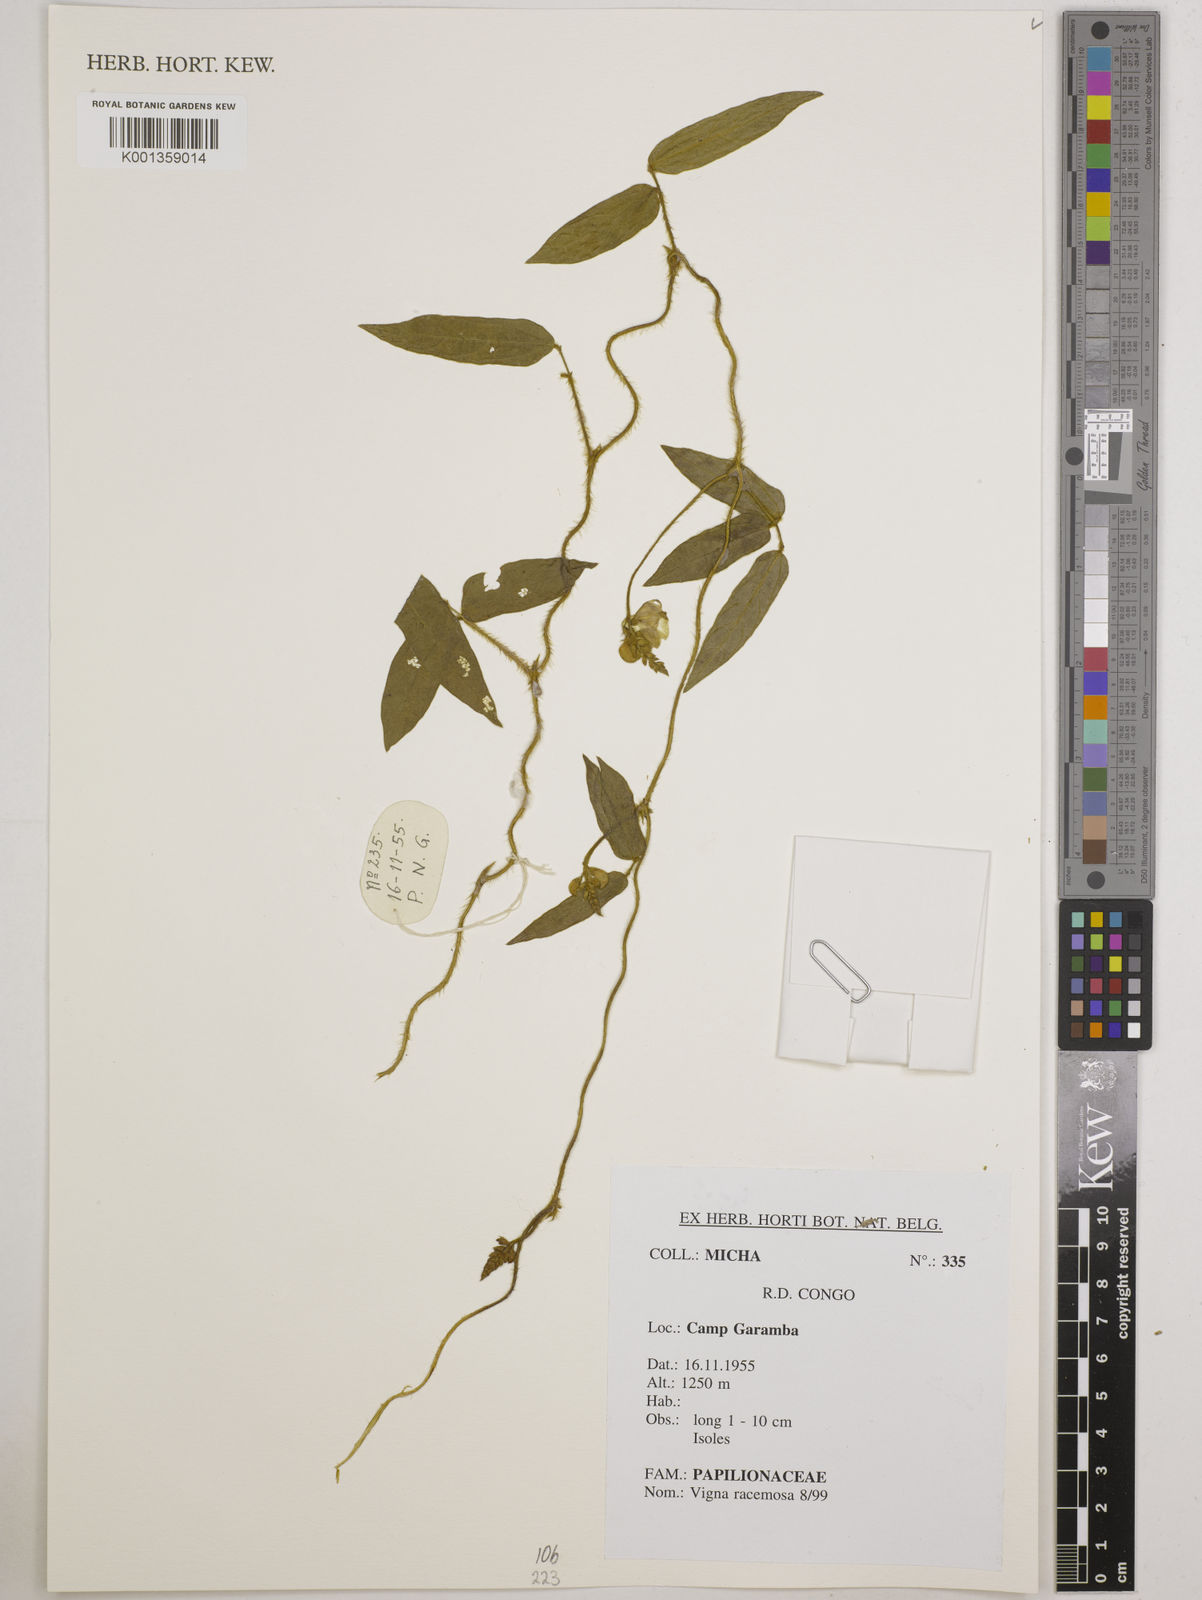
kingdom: Plantae
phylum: Tracheophyta
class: Magnoliopsida
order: Fabales
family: Fabaceae
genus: Vigna
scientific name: Vigna racemosa
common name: Beans not eaten
